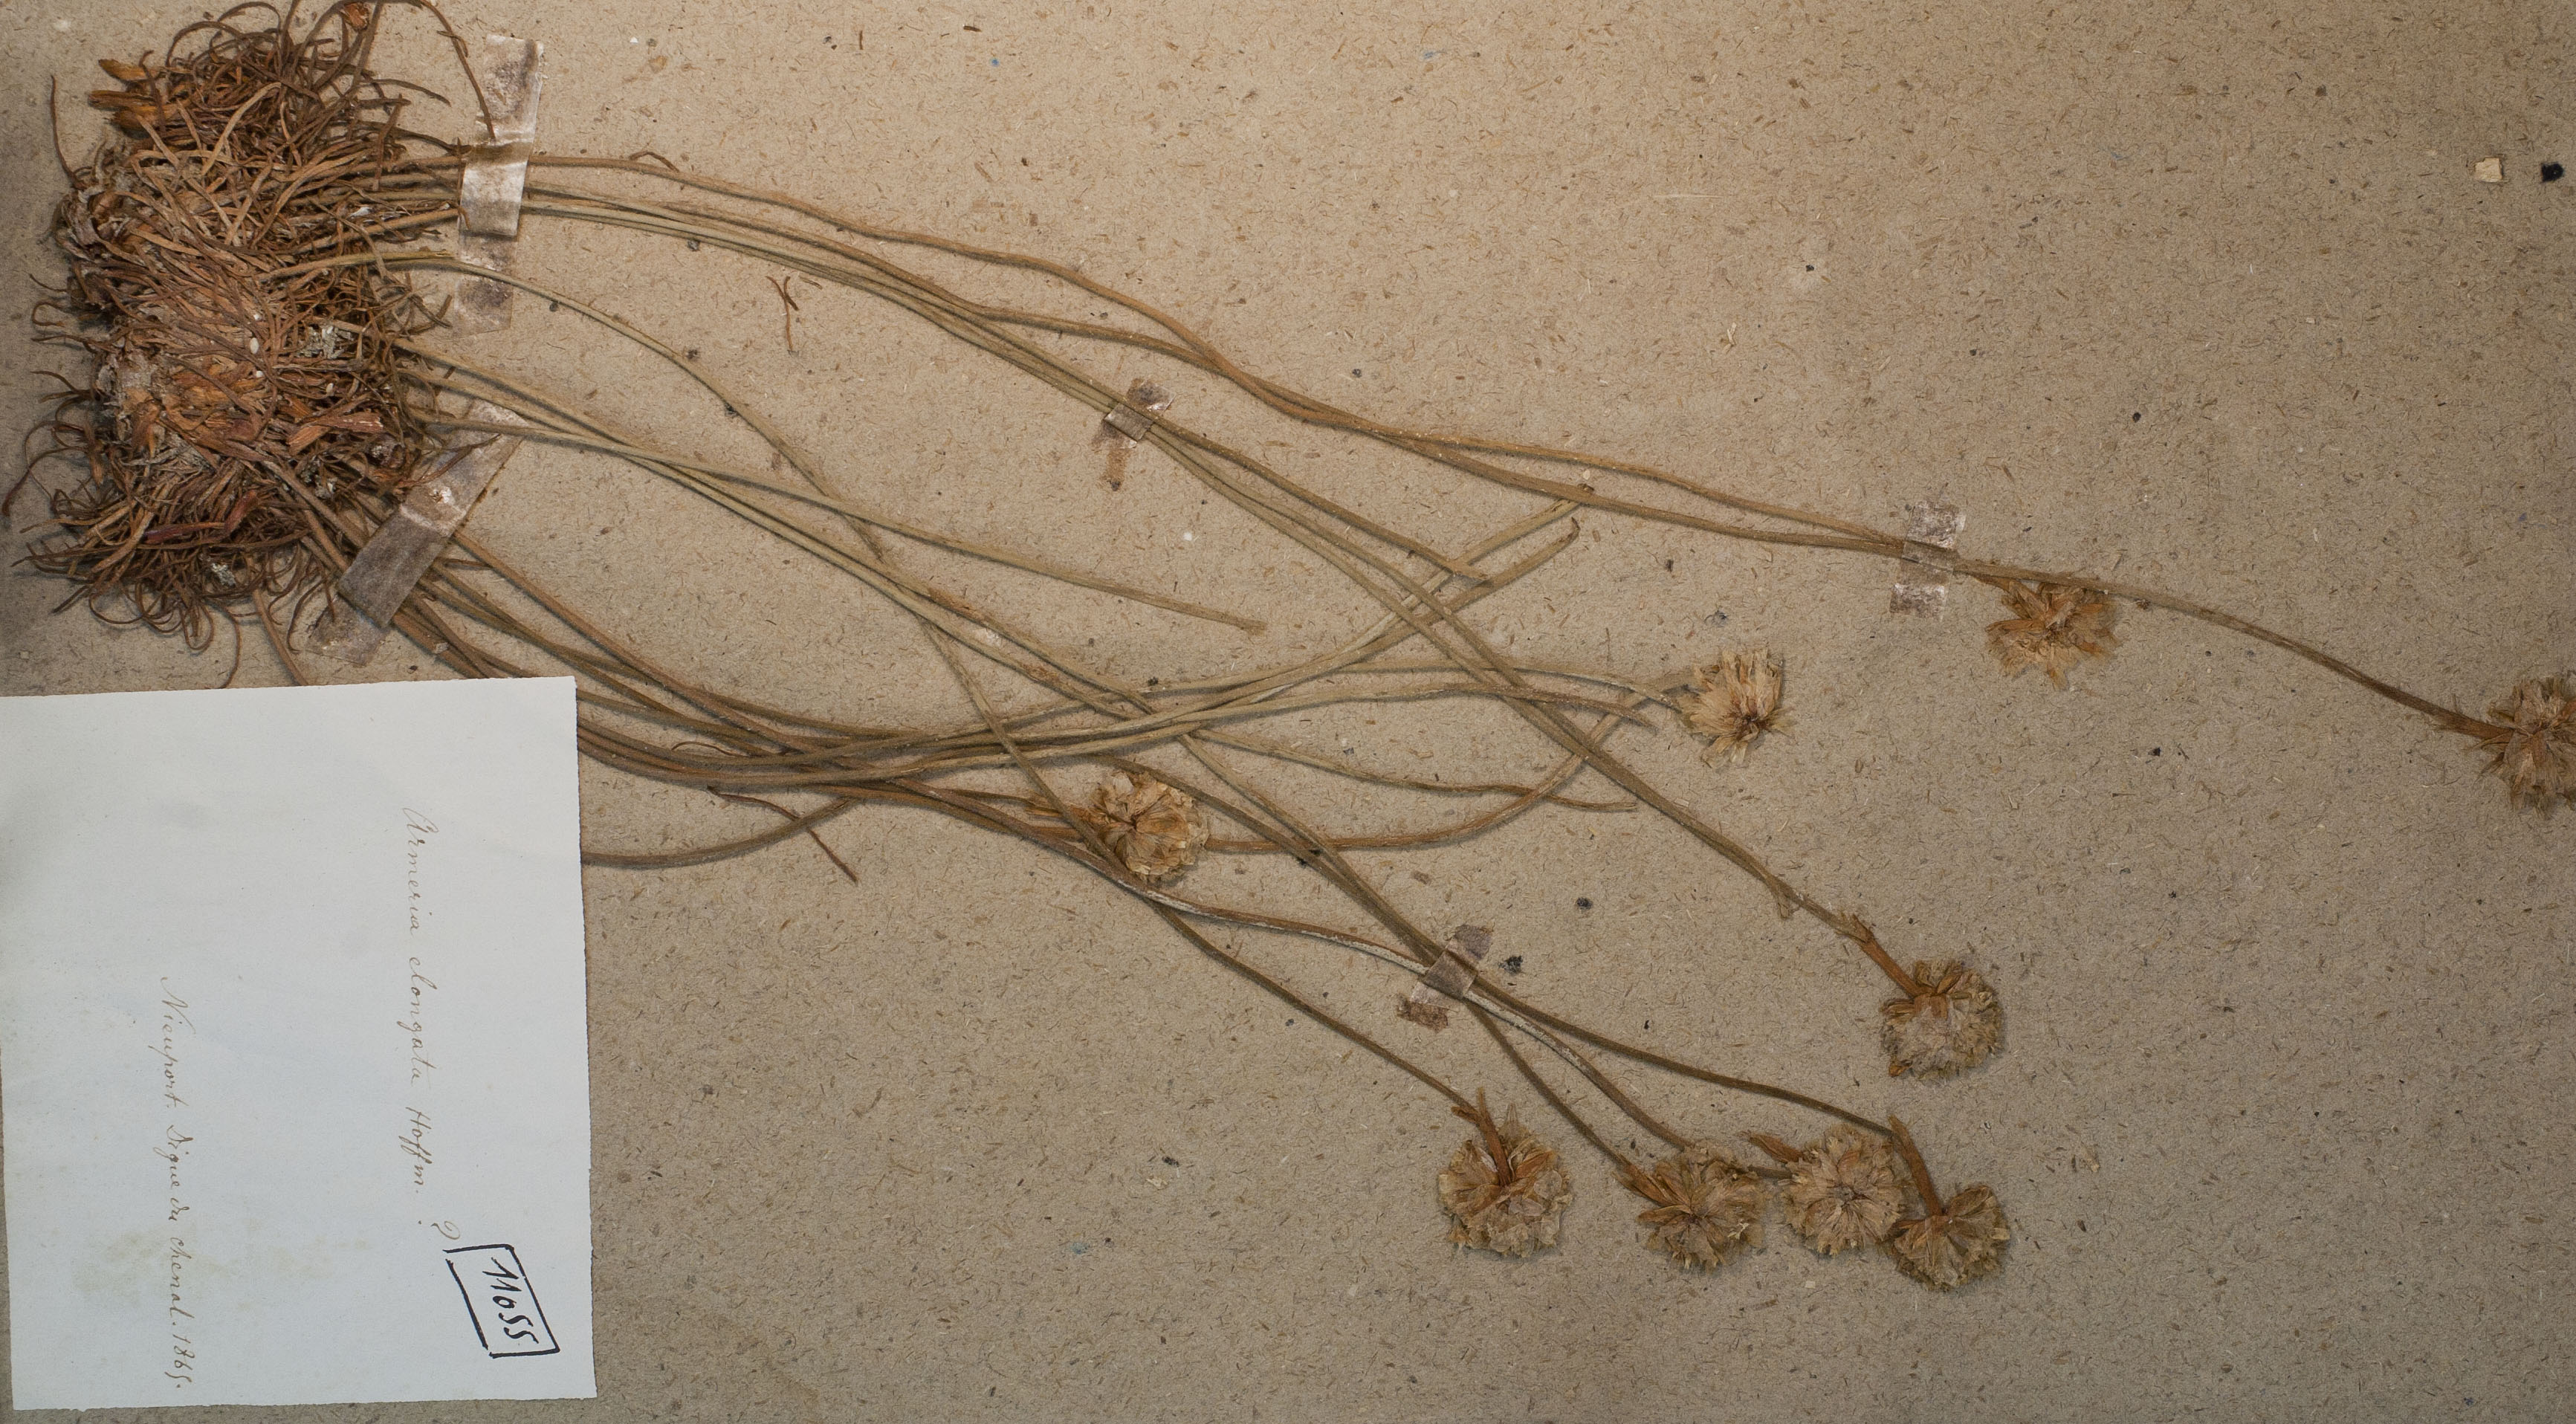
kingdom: Plantae
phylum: Tracheophyta
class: Magnoliopsida
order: Caryophyllales
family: Plumbaginaceae
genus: Armeria
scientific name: Armeria maritima
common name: Thrift
